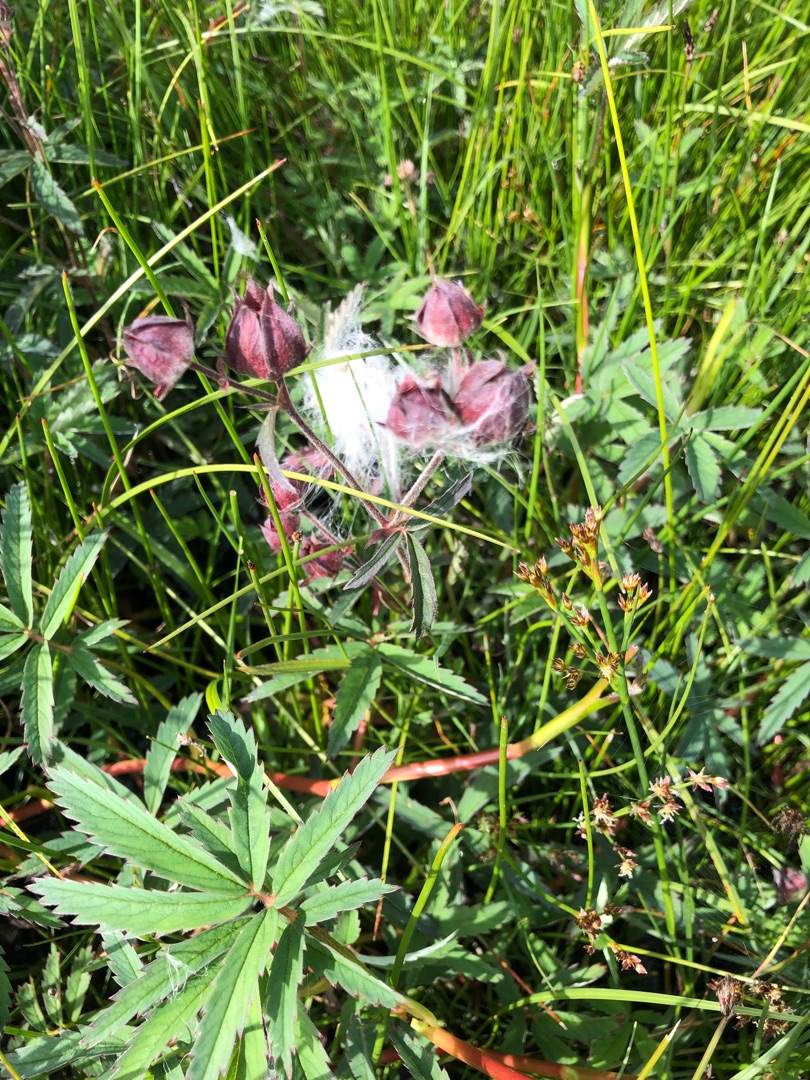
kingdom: Plantae
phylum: Tracheophyta
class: Magnoliopsida
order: Rosales
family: Rosaceae
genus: Comarum
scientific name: Comarum palustre
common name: Kragefod
